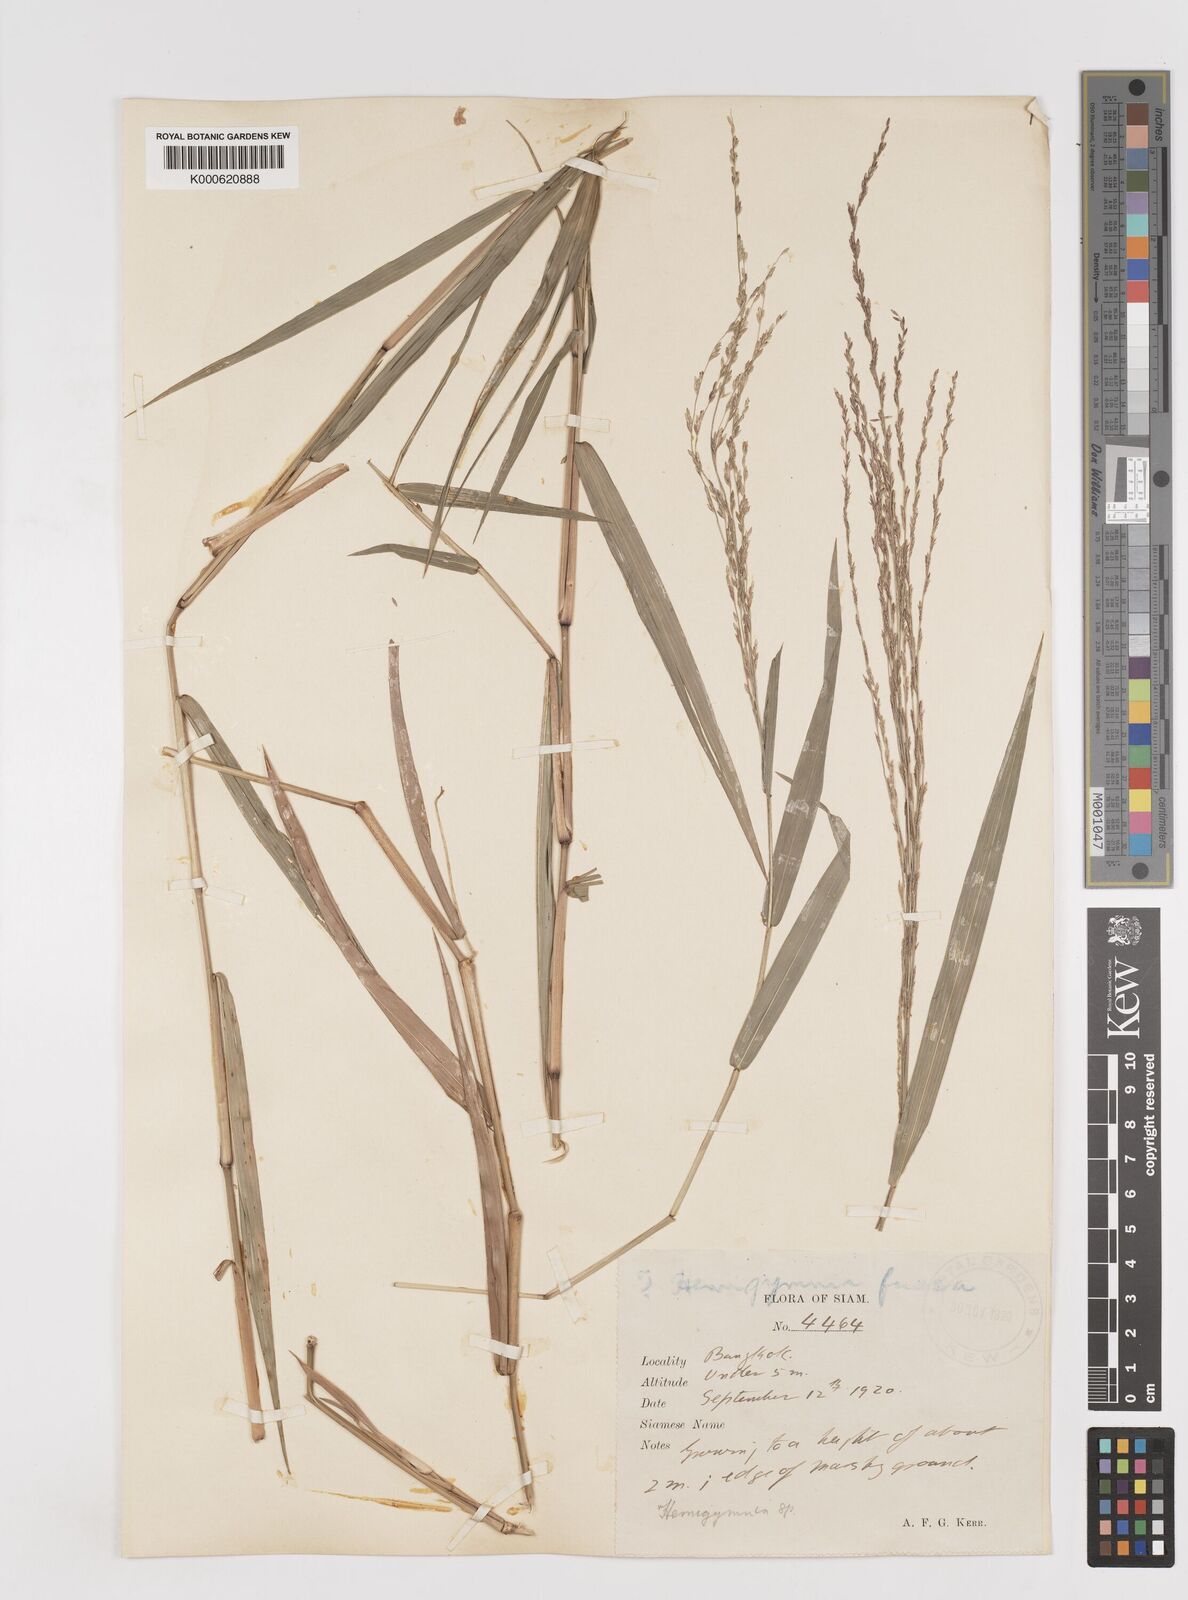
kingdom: Plantae
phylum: Tracheophyta
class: Liliopsida
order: Poales
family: Poaceae
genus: Ottochloa
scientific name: Ottochloa nodosa
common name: Slender-panic grass
